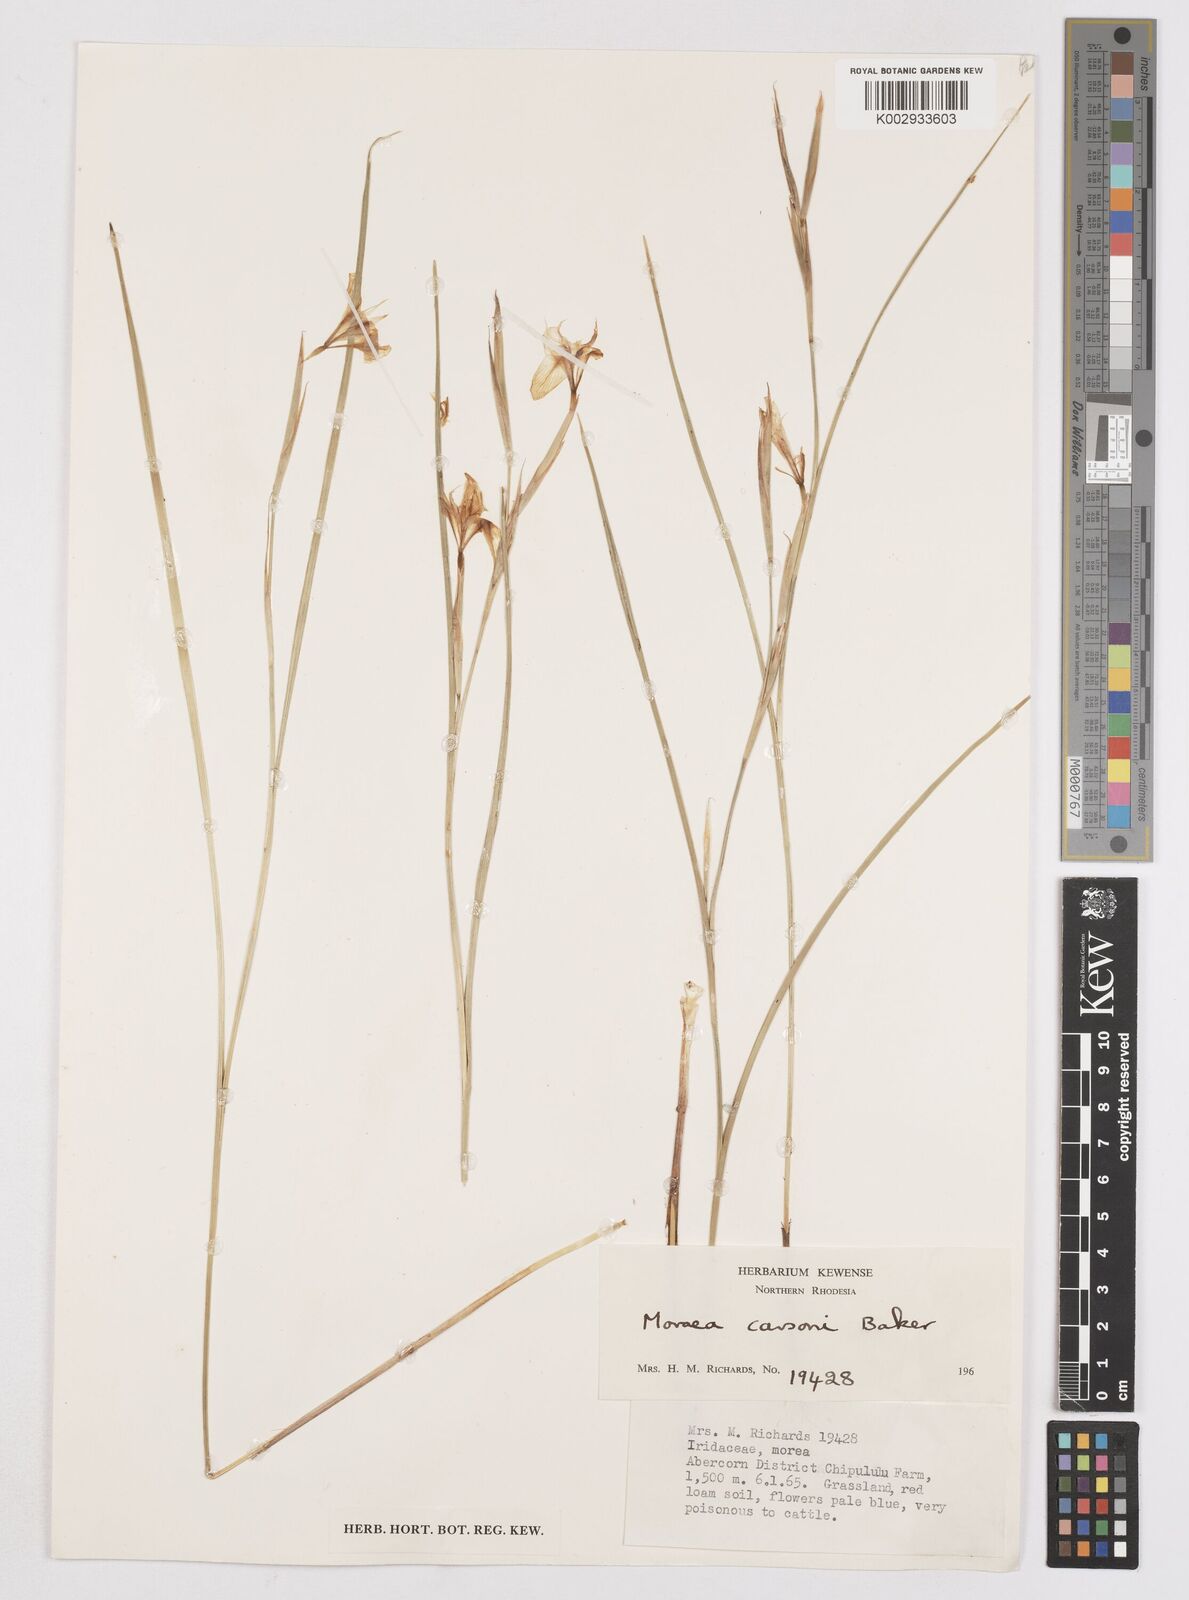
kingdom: Plantae
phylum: Tracheophyta
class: Liliopsida
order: Asparagales
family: Iridaceae
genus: Moraea
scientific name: Moraea carsonii
